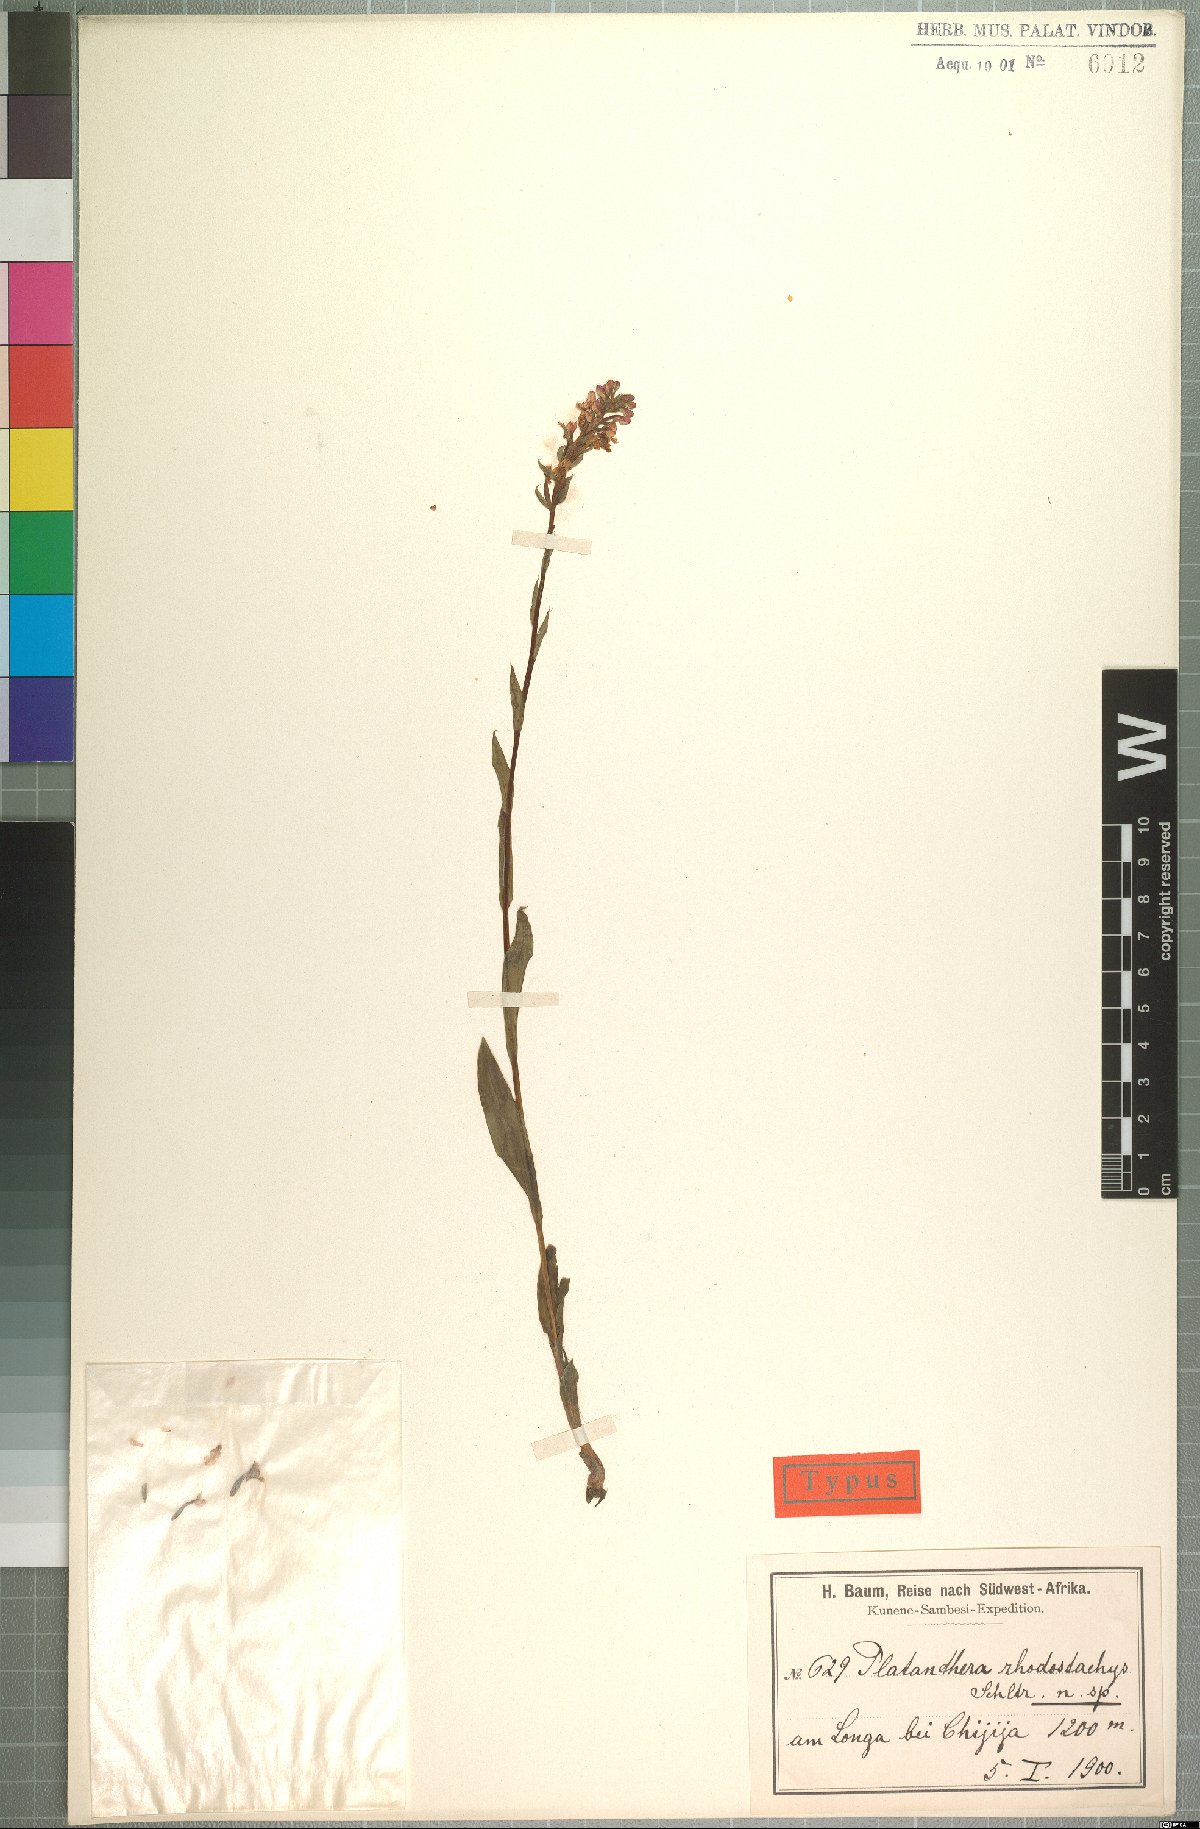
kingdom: Plantae
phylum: Tracheophyta
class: Liliopsida
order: Asparagales
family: Orchidaceae
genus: Brachycorythis
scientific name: Brachycorythis rhodostachys
